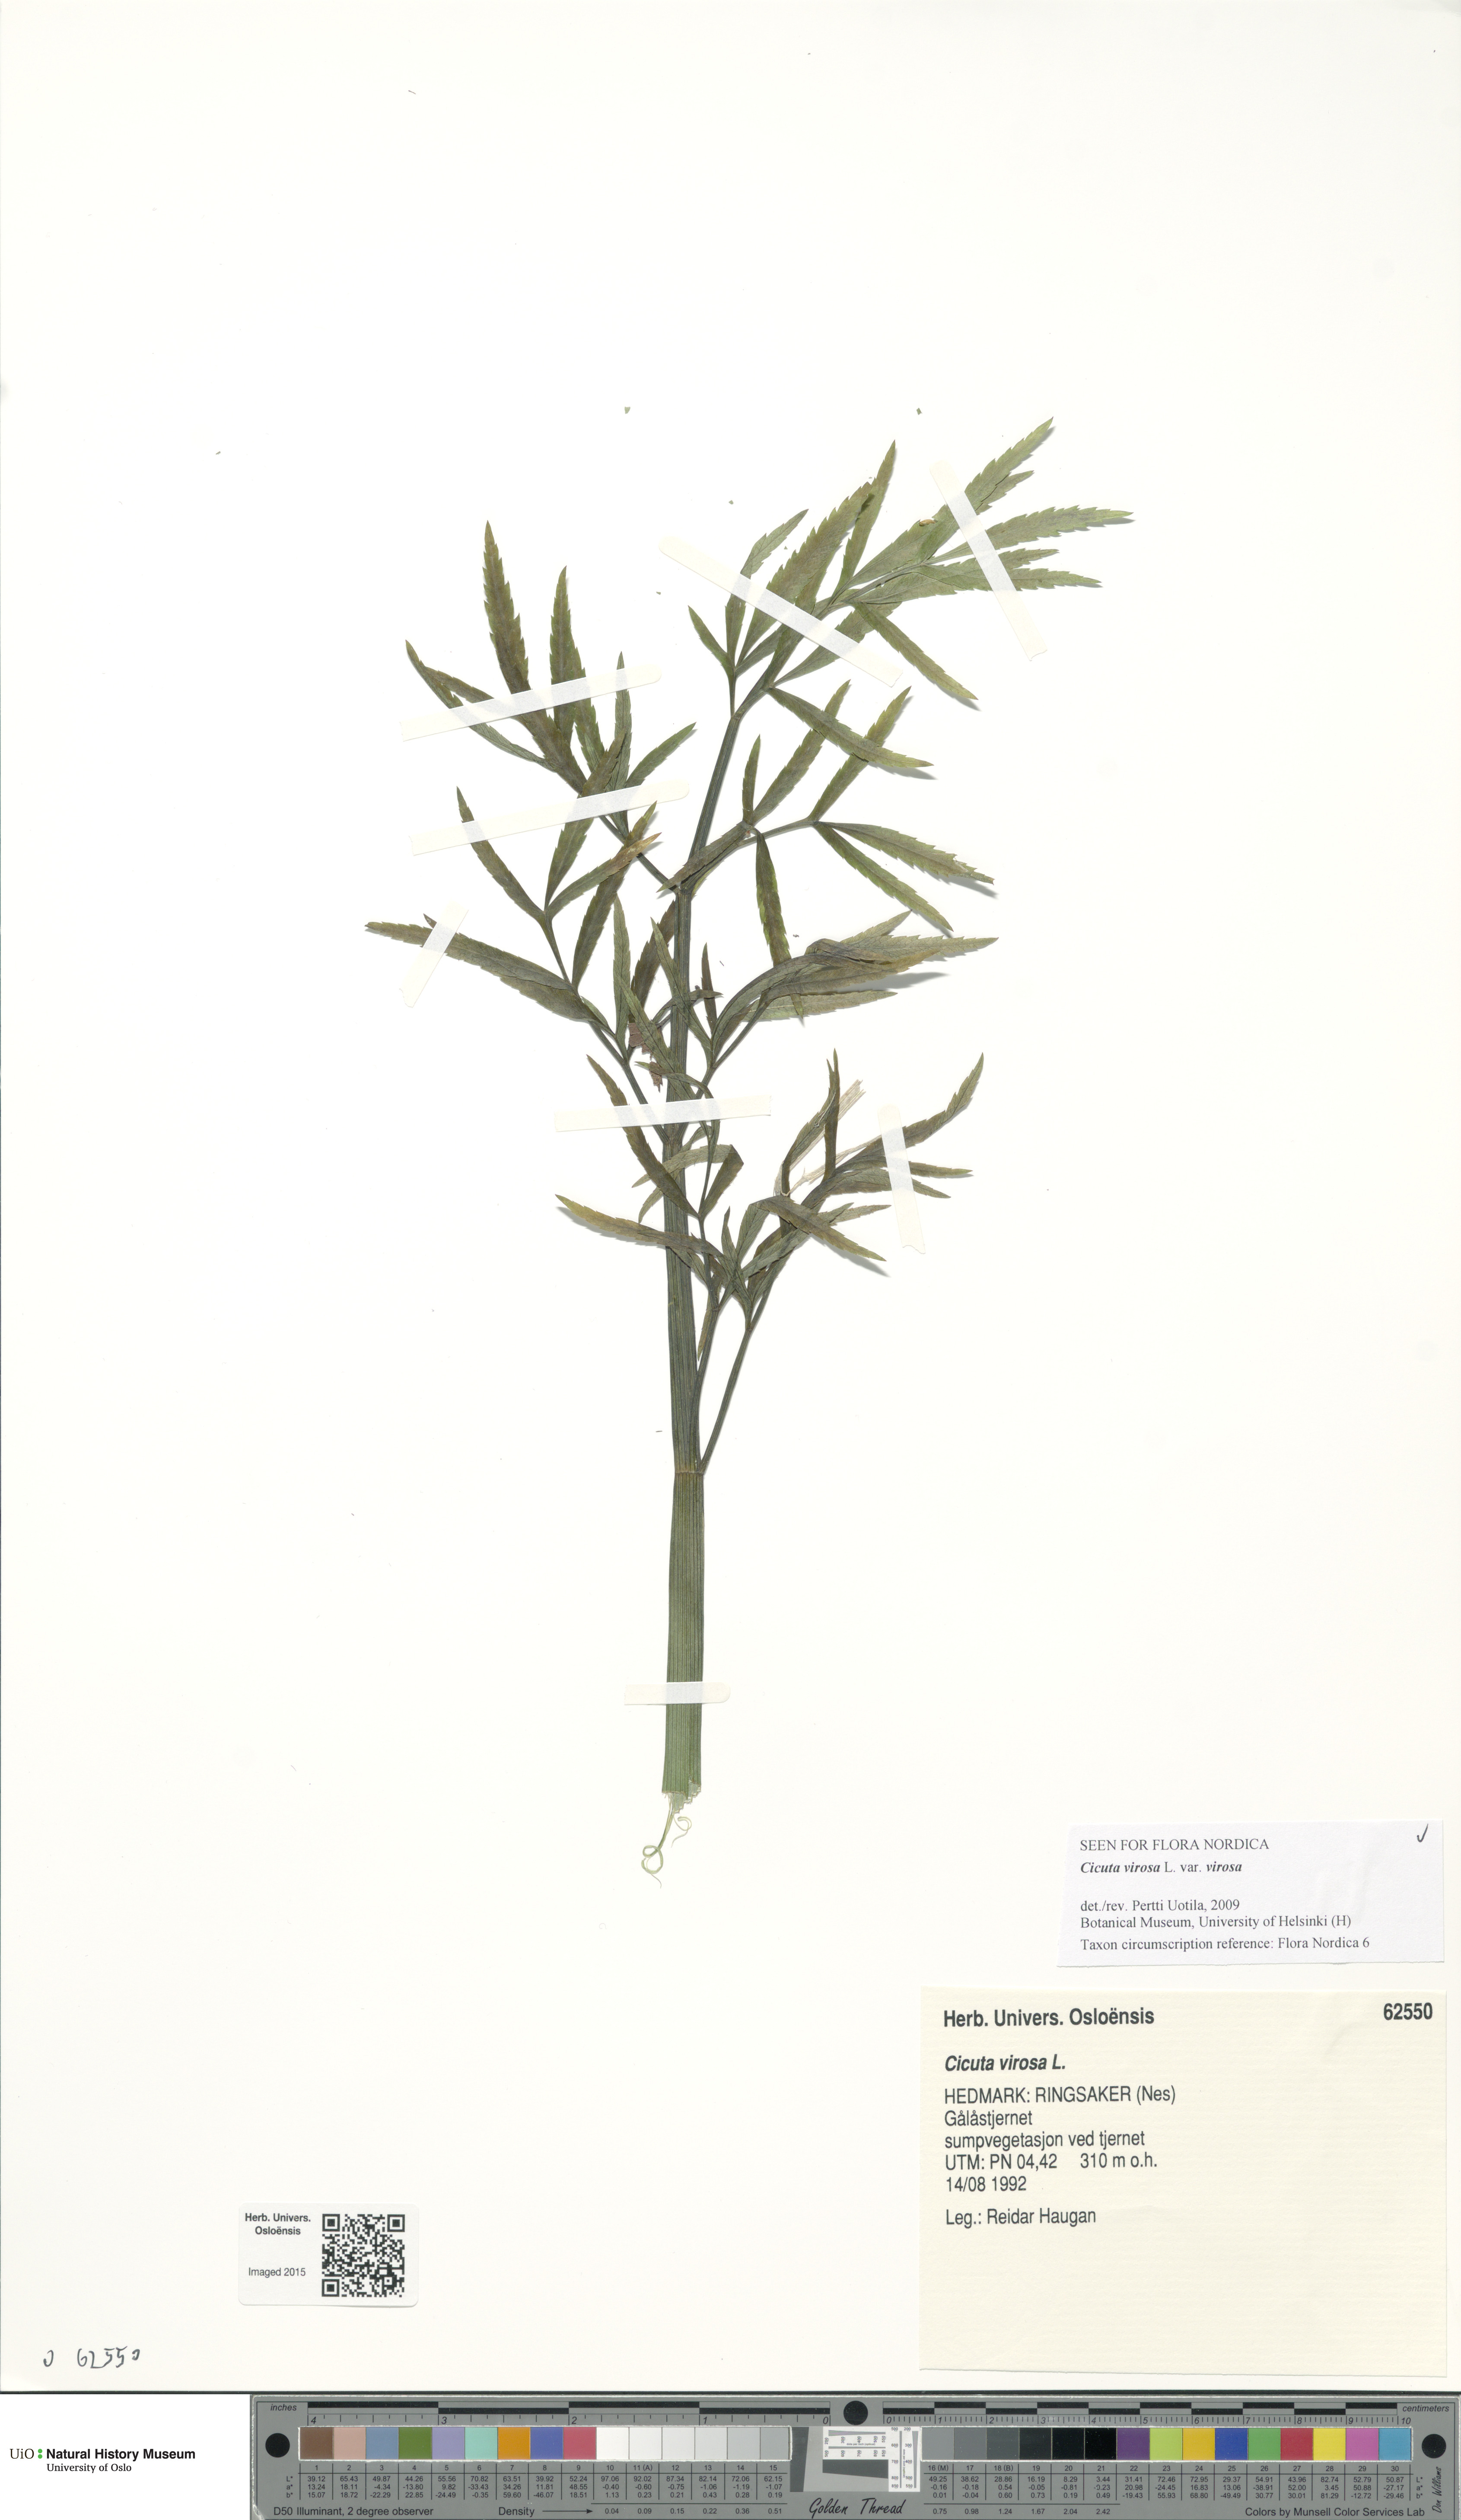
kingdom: Plantae
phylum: Tracheophyta
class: Magnoliopsida
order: Apiales
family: Apiaceae
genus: Cicuta
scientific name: Cicuta virosa
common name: Cowbane
